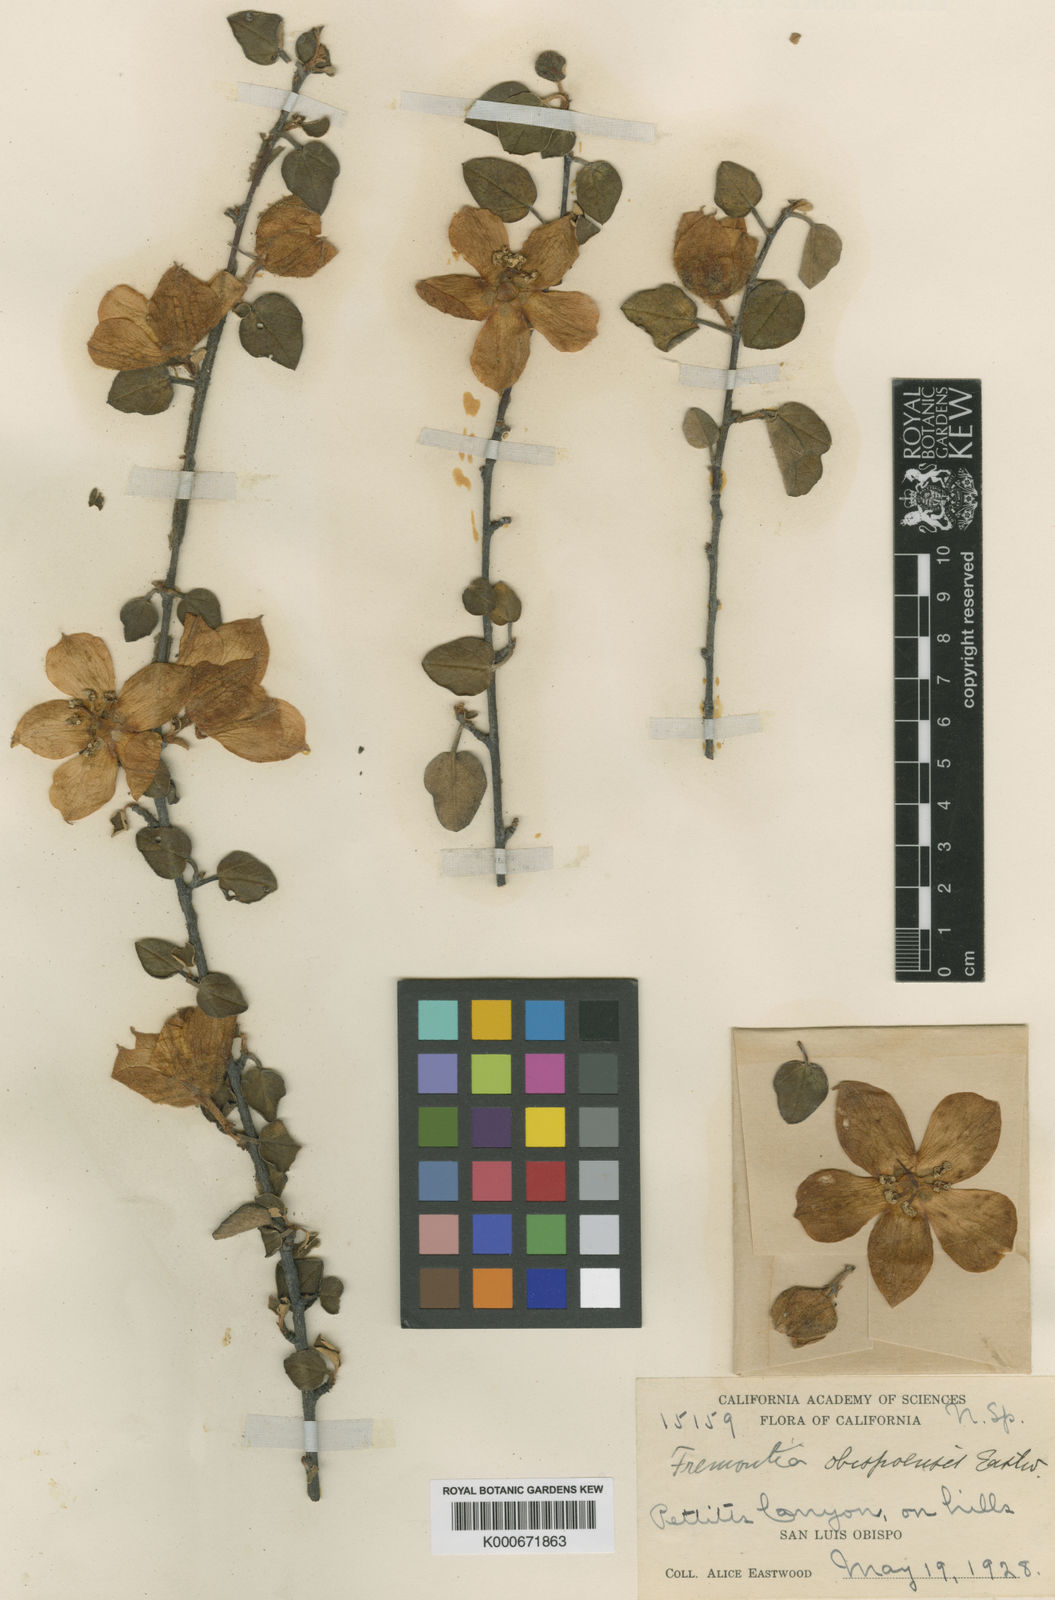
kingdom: Plantae
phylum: Tracheophyta
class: Magnoliopsida
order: Malvales
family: Malvaceae
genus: Fremontodendron
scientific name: Fremontodendron
